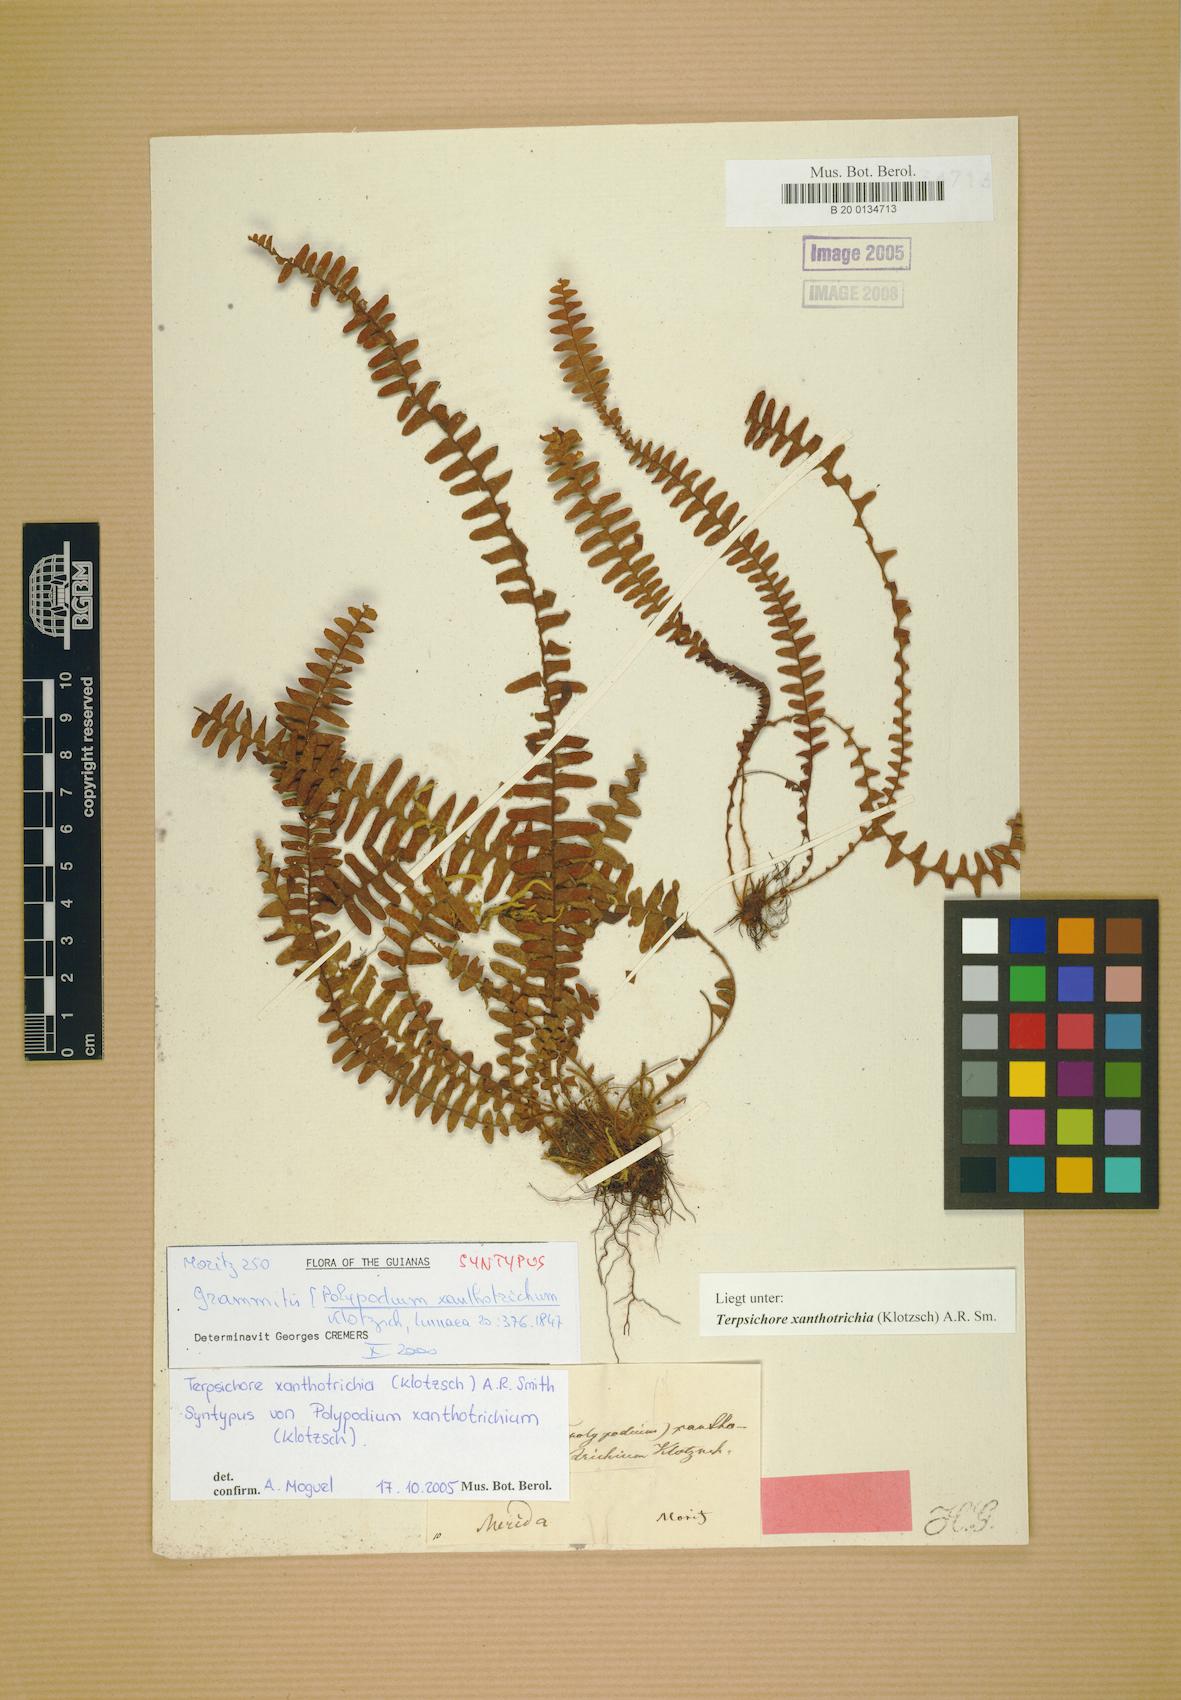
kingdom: Plantae
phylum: Tracheophyta
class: Polypodiopsida
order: Polypodiales
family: Polypodiaceae
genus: Alansmia
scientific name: Alansmia xanthotrichia
